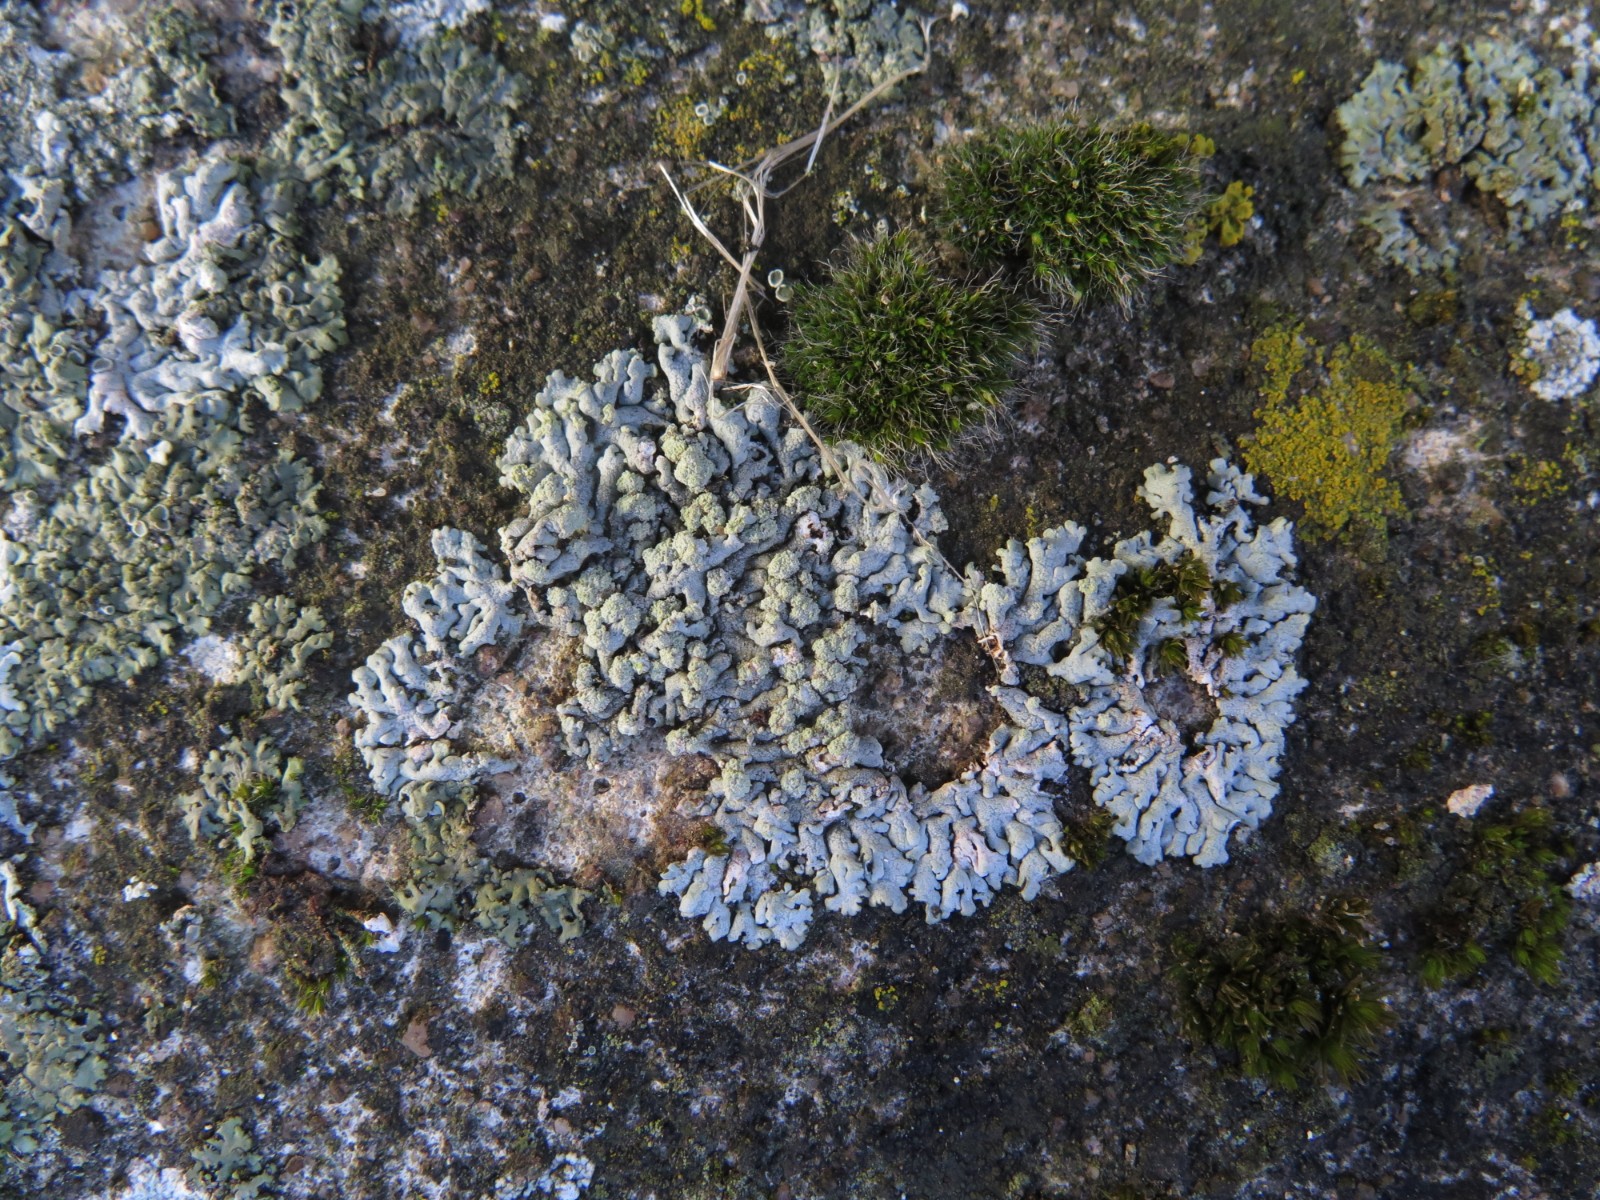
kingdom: Fungi
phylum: Ascomycota
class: Lecanoromycetes
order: Caliciales
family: Physciaceae
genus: Physcia
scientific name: Physcia caesia
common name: blågrå rosetlav
